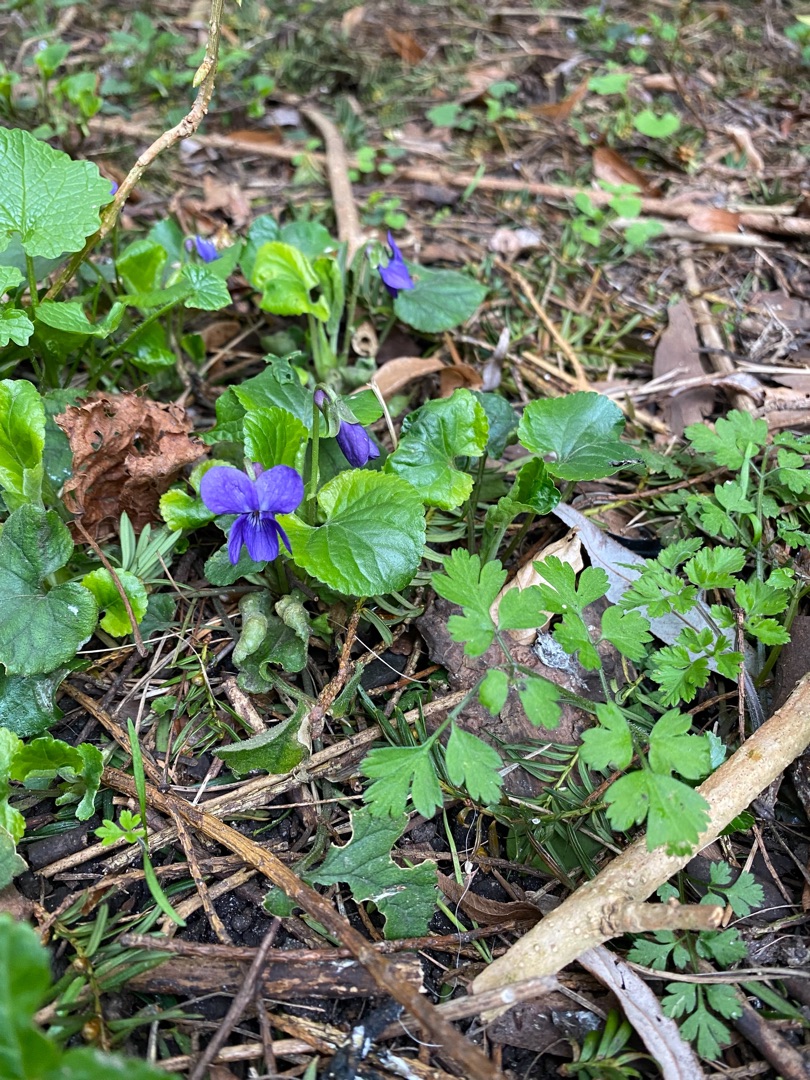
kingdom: Plantae
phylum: Tracheophyta
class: Magnoliopsida
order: Malpighiales
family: Violaceae
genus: Viola
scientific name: Viola odorata
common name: Marts-viol
